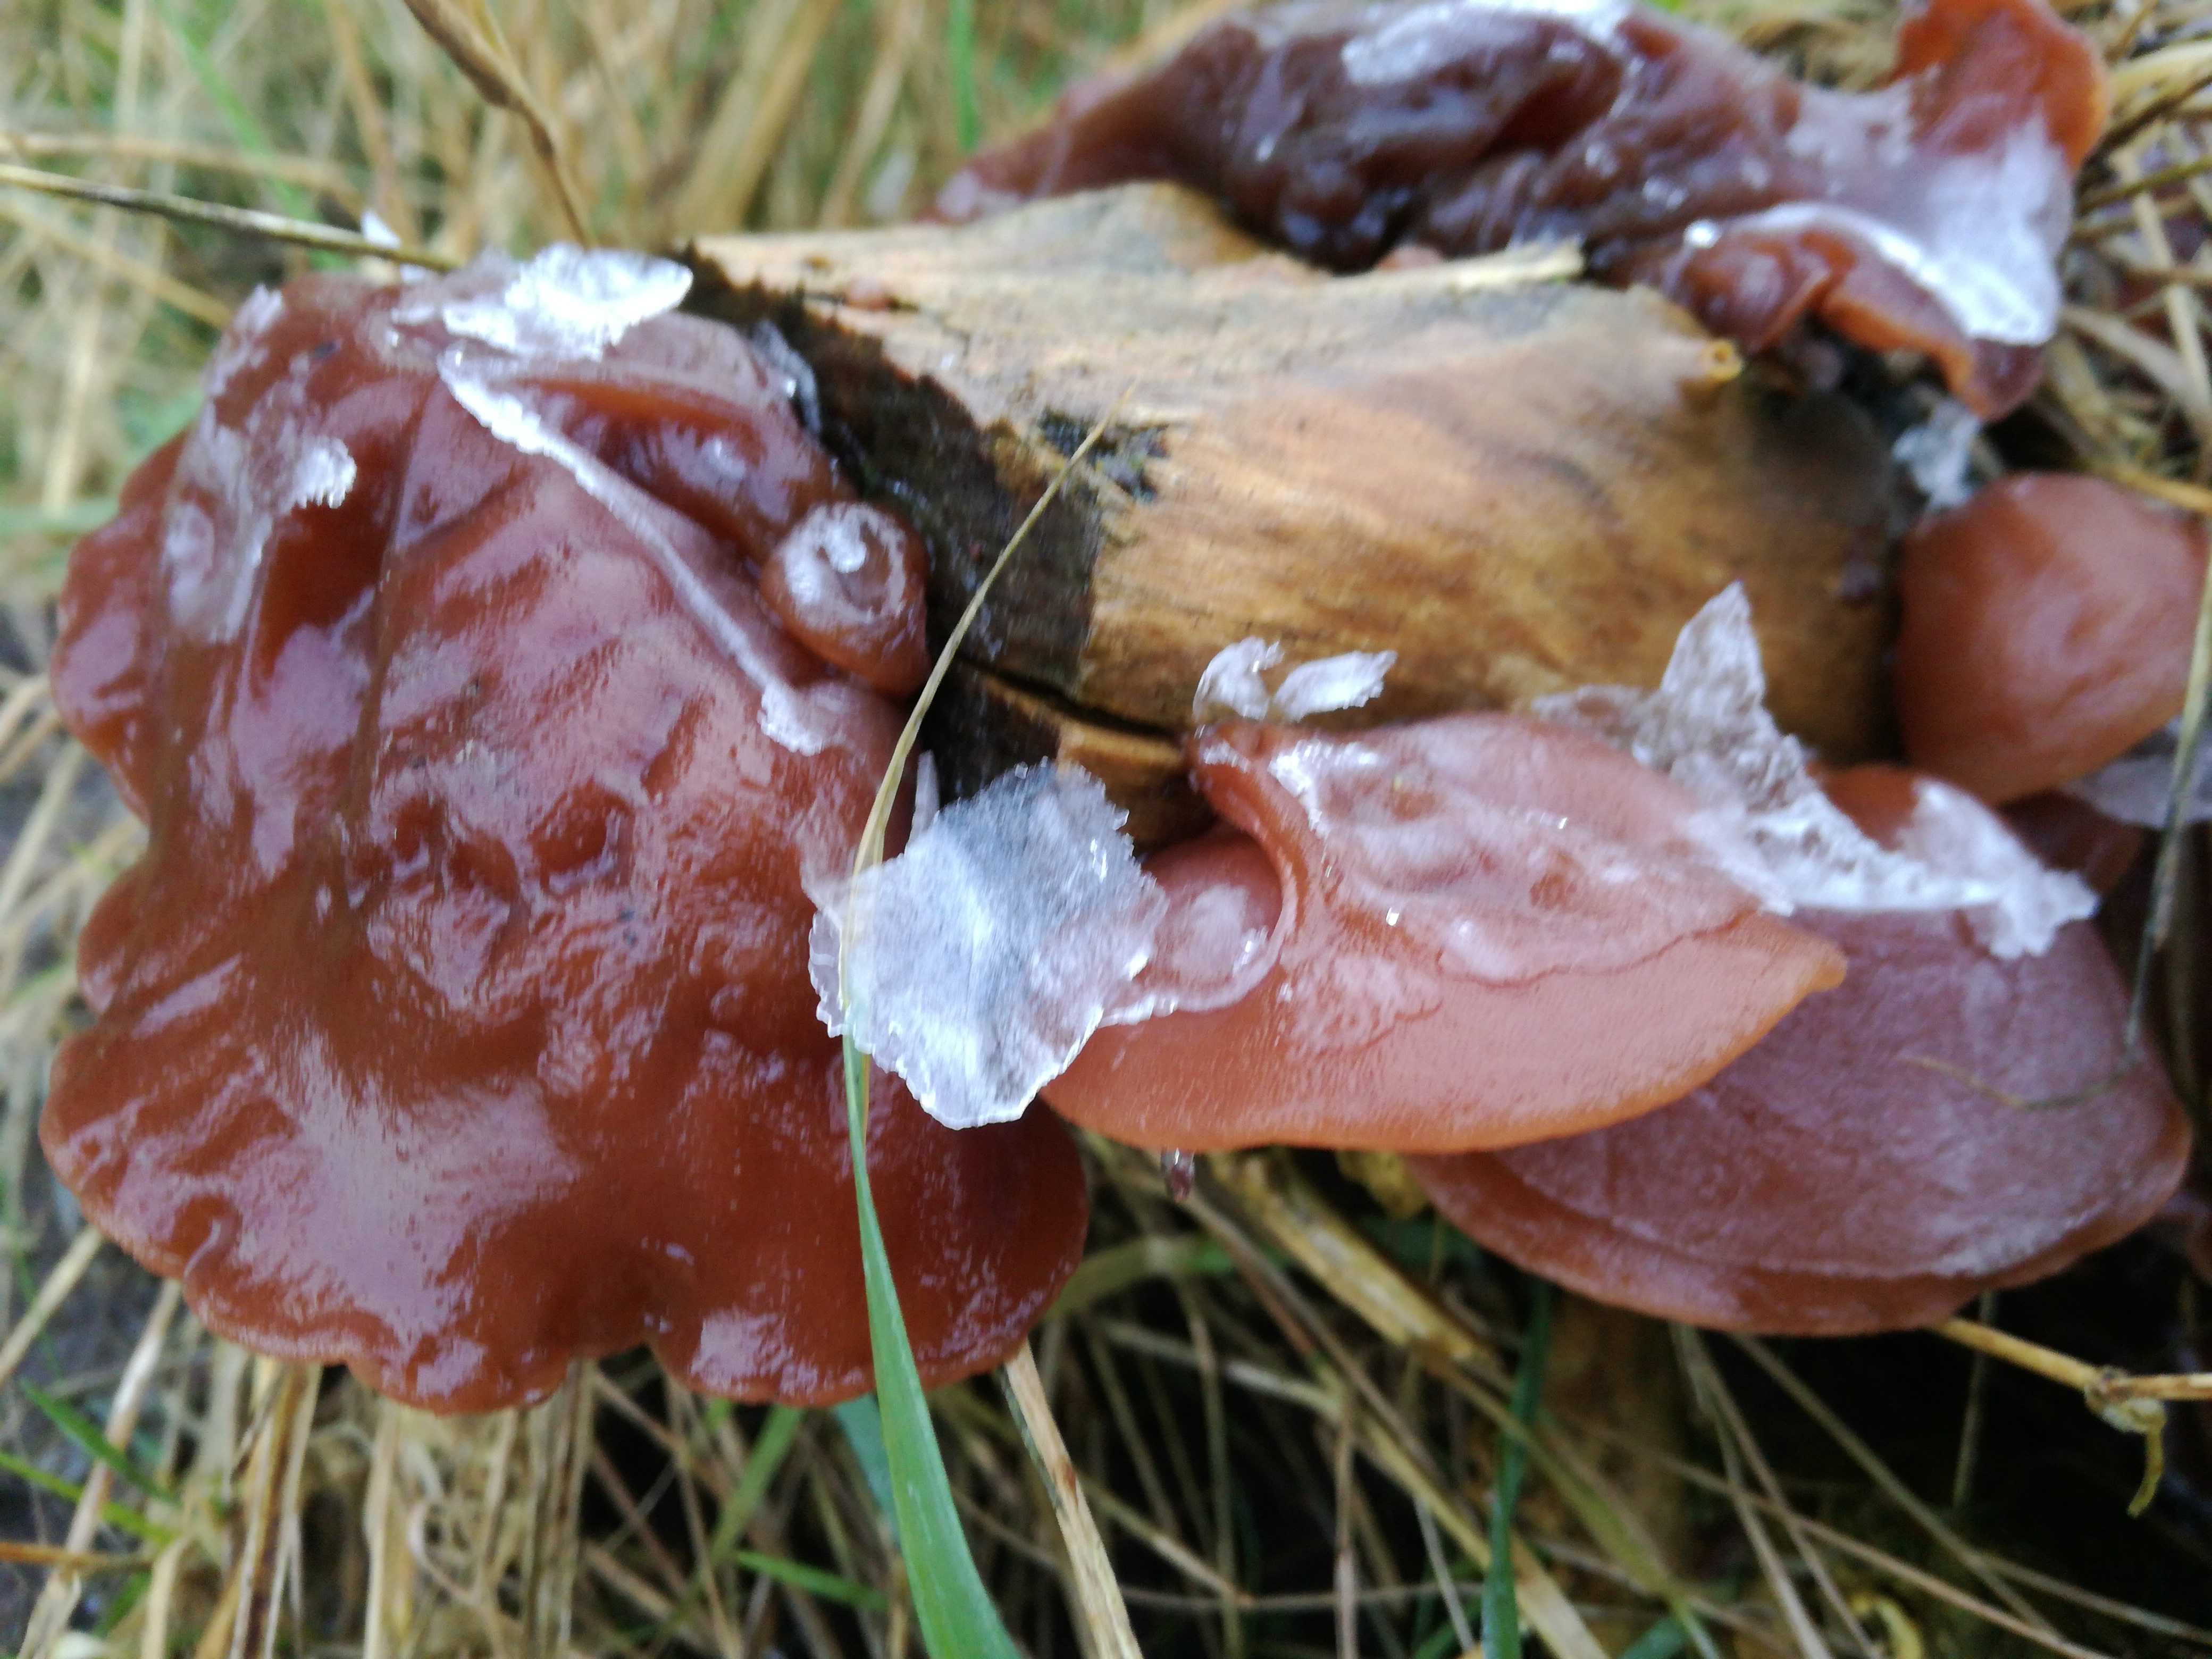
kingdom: Fungi
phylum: Basidiomycota
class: Agaricomycetes
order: Auriculariales
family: Auriculariaceae
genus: Auricularia
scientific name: Auricularia auricula-judae
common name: almindelig judasøre
